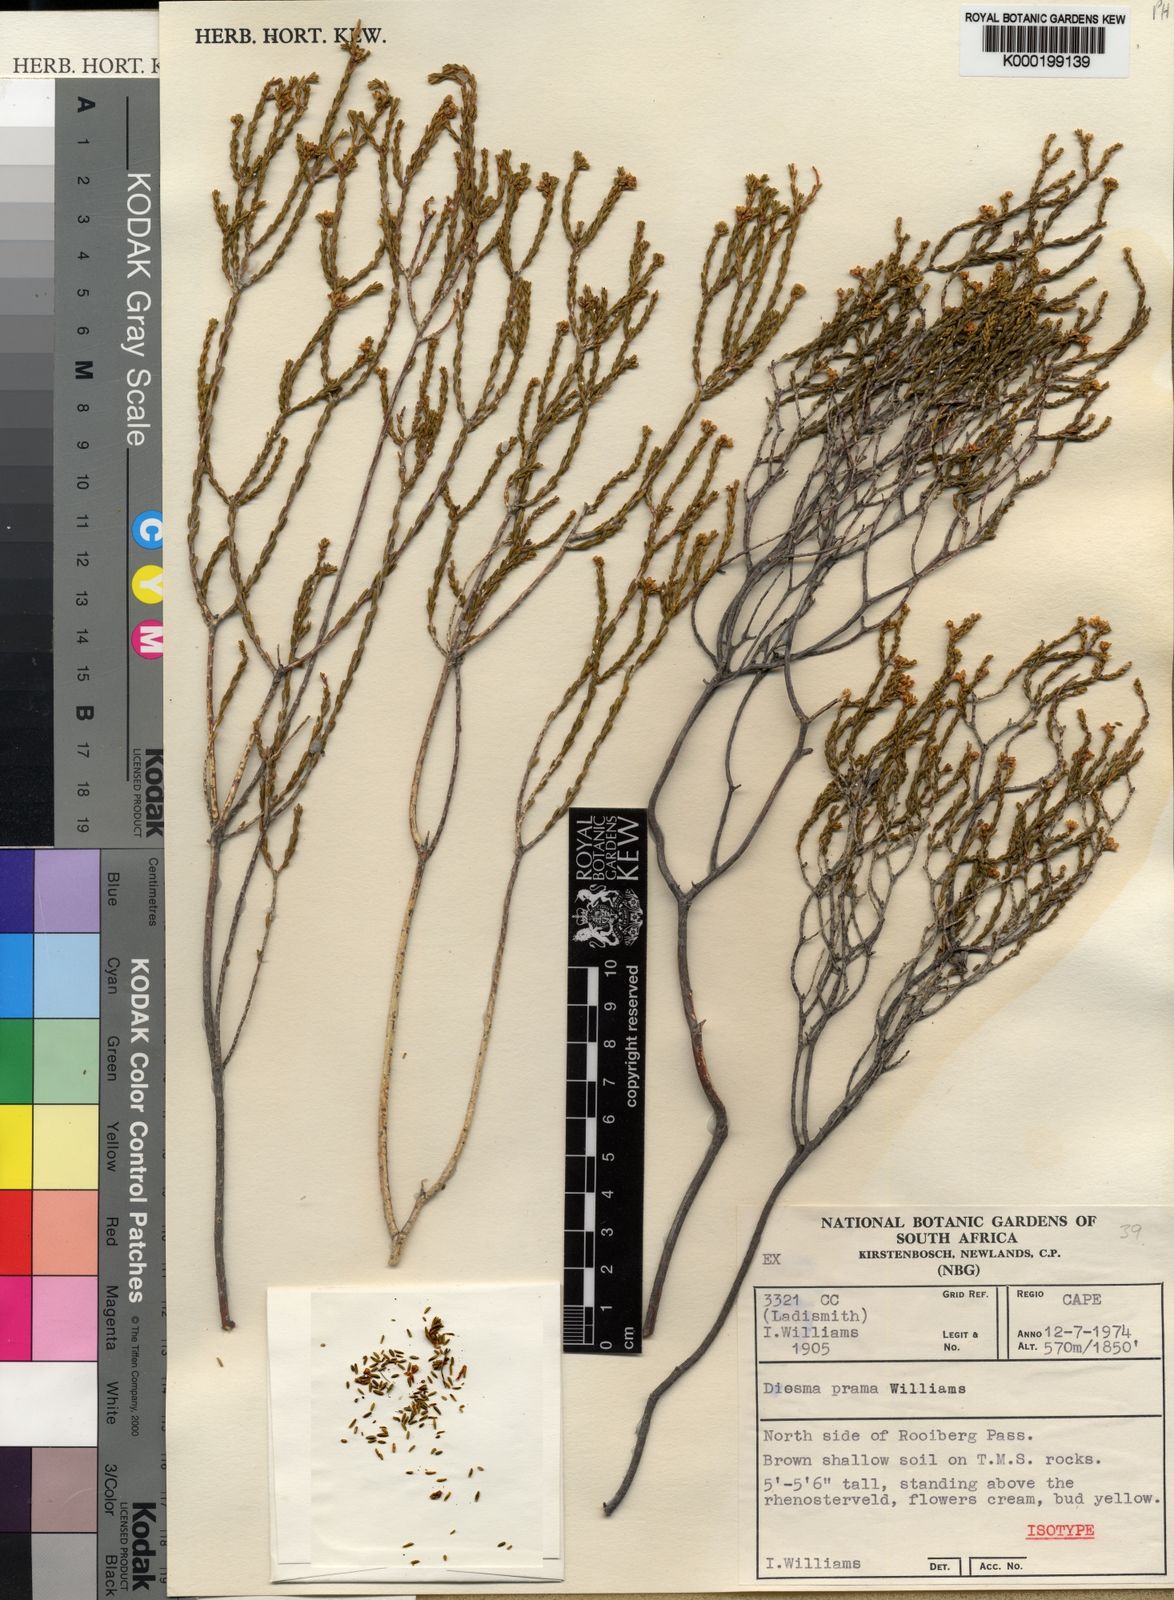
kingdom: Plantae
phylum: Tracheophyta
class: Magnoliopsida
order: Sapindales
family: Rutaceae
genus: Diosma
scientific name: Diosma prama
